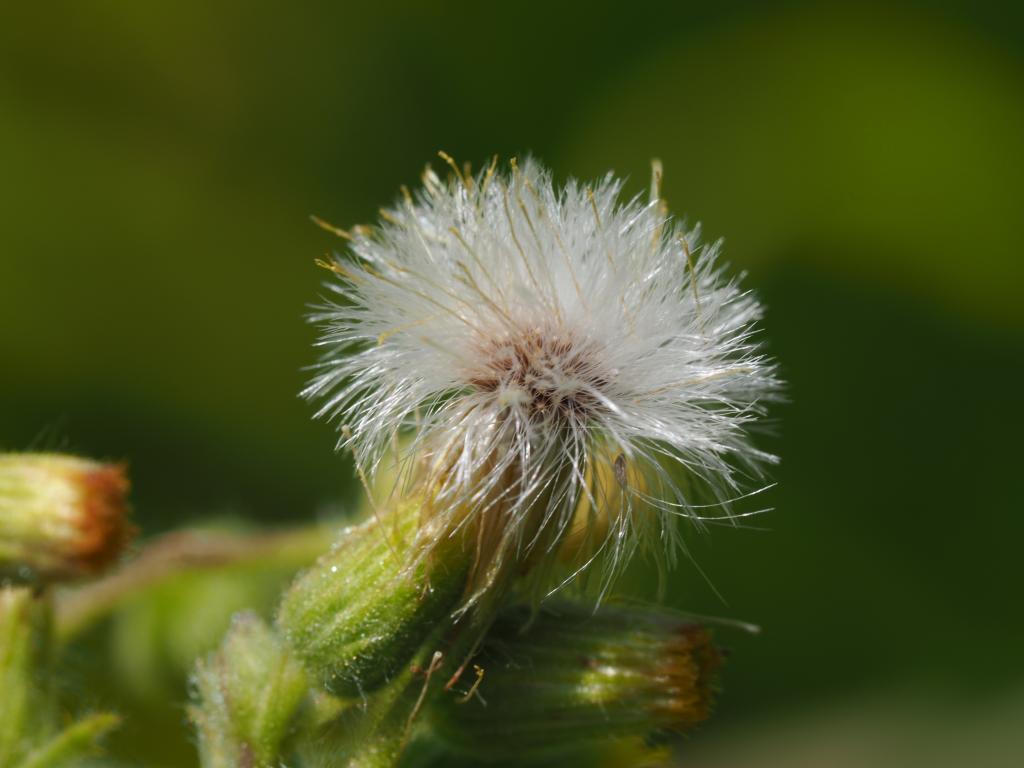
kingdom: Plantae
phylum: Tracheophyta
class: Magnoliopsida
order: Asterales
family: Asteraceae
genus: Blumea
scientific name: Blumea lacera
